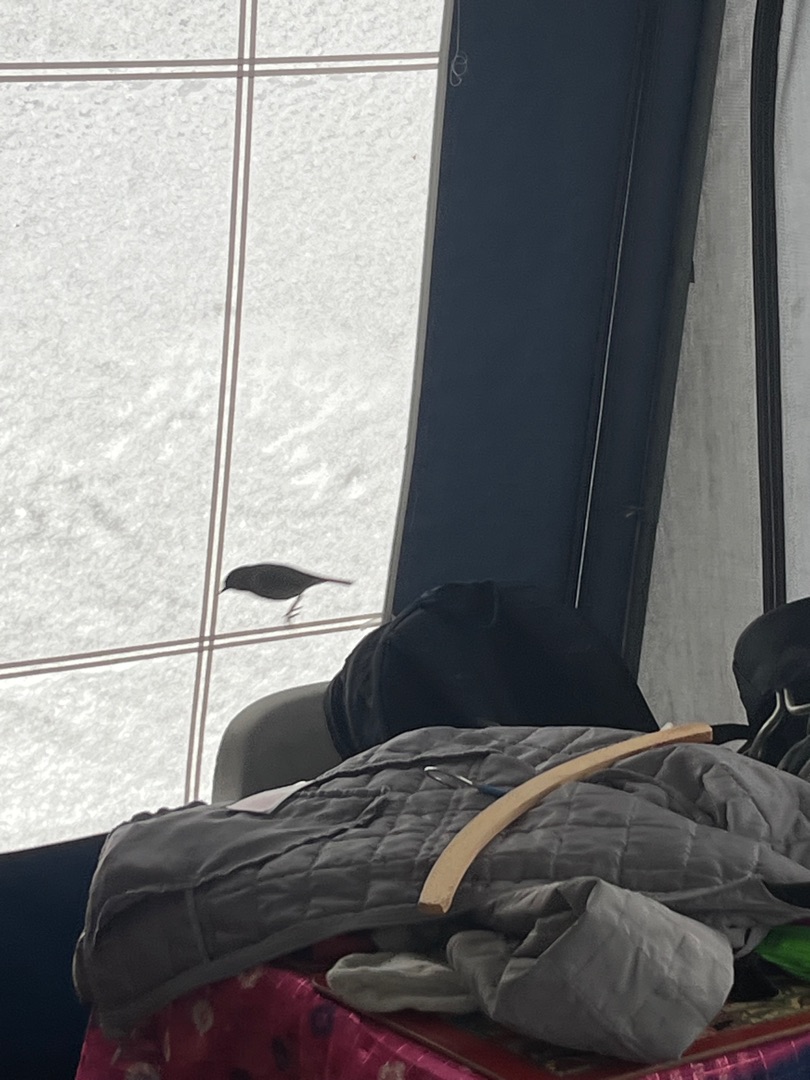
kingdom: Animalia
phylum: Chordata
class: Aves
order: Passeriformes
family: Muscicapidae
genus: Erithacus
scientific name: Erithacus rubecula
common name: Rødhals/rødkælk
